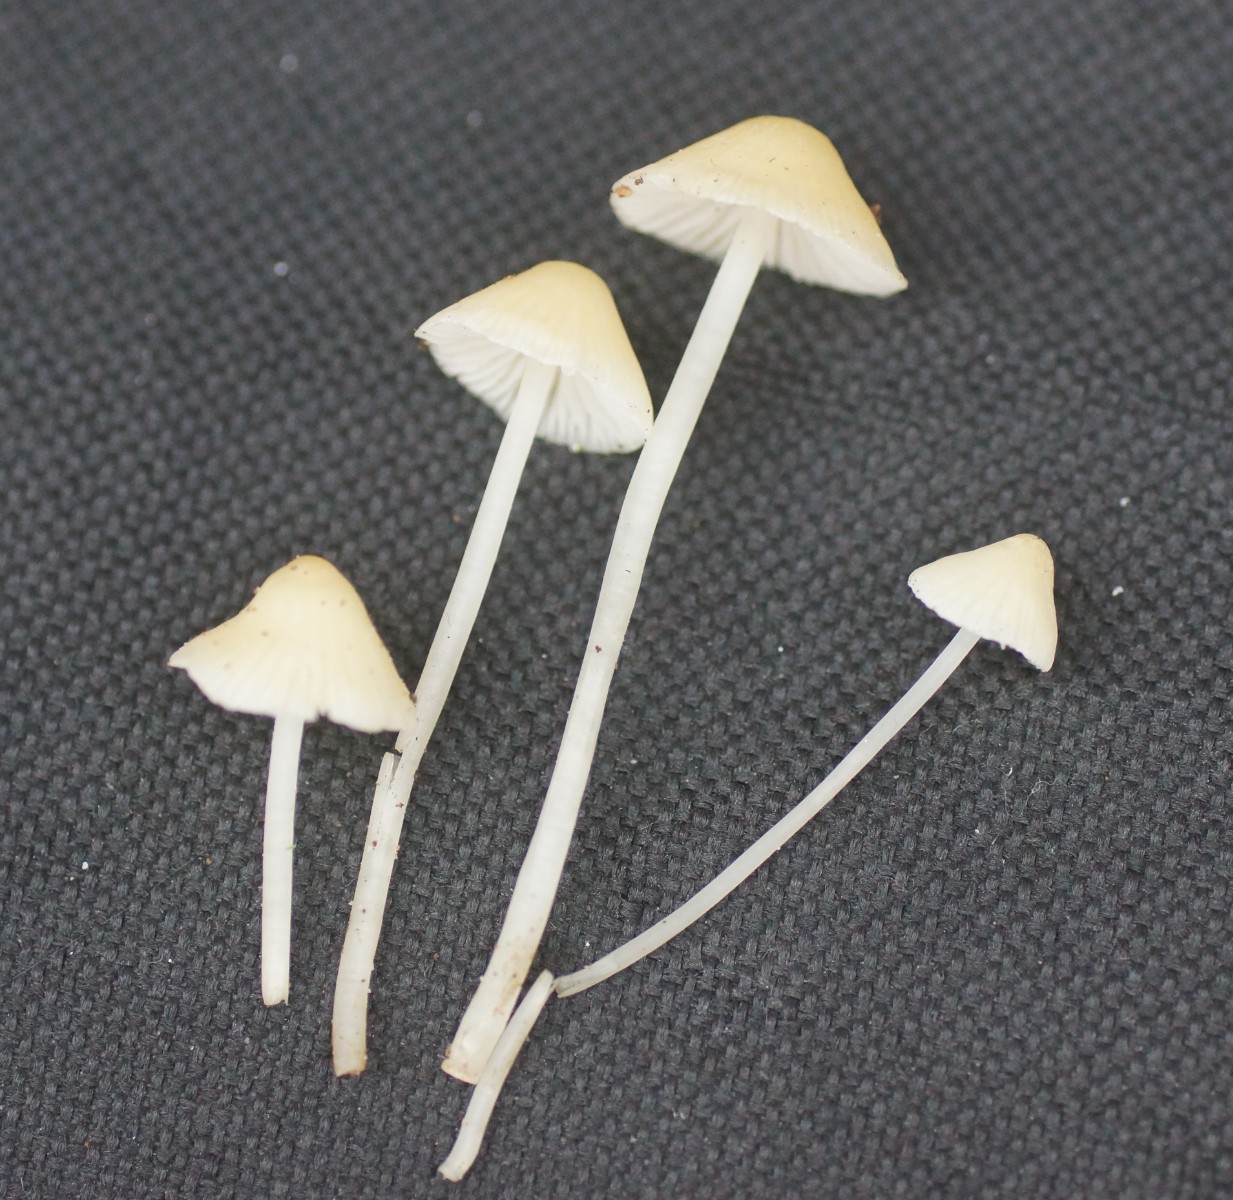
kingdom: Fungi
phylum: Basidiomycota
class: Agaricomycetes
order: Agaricales
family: Mycenaceae
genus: Atheniella
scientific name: Atheniella flavoalba
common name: gulhvid huesvamp
